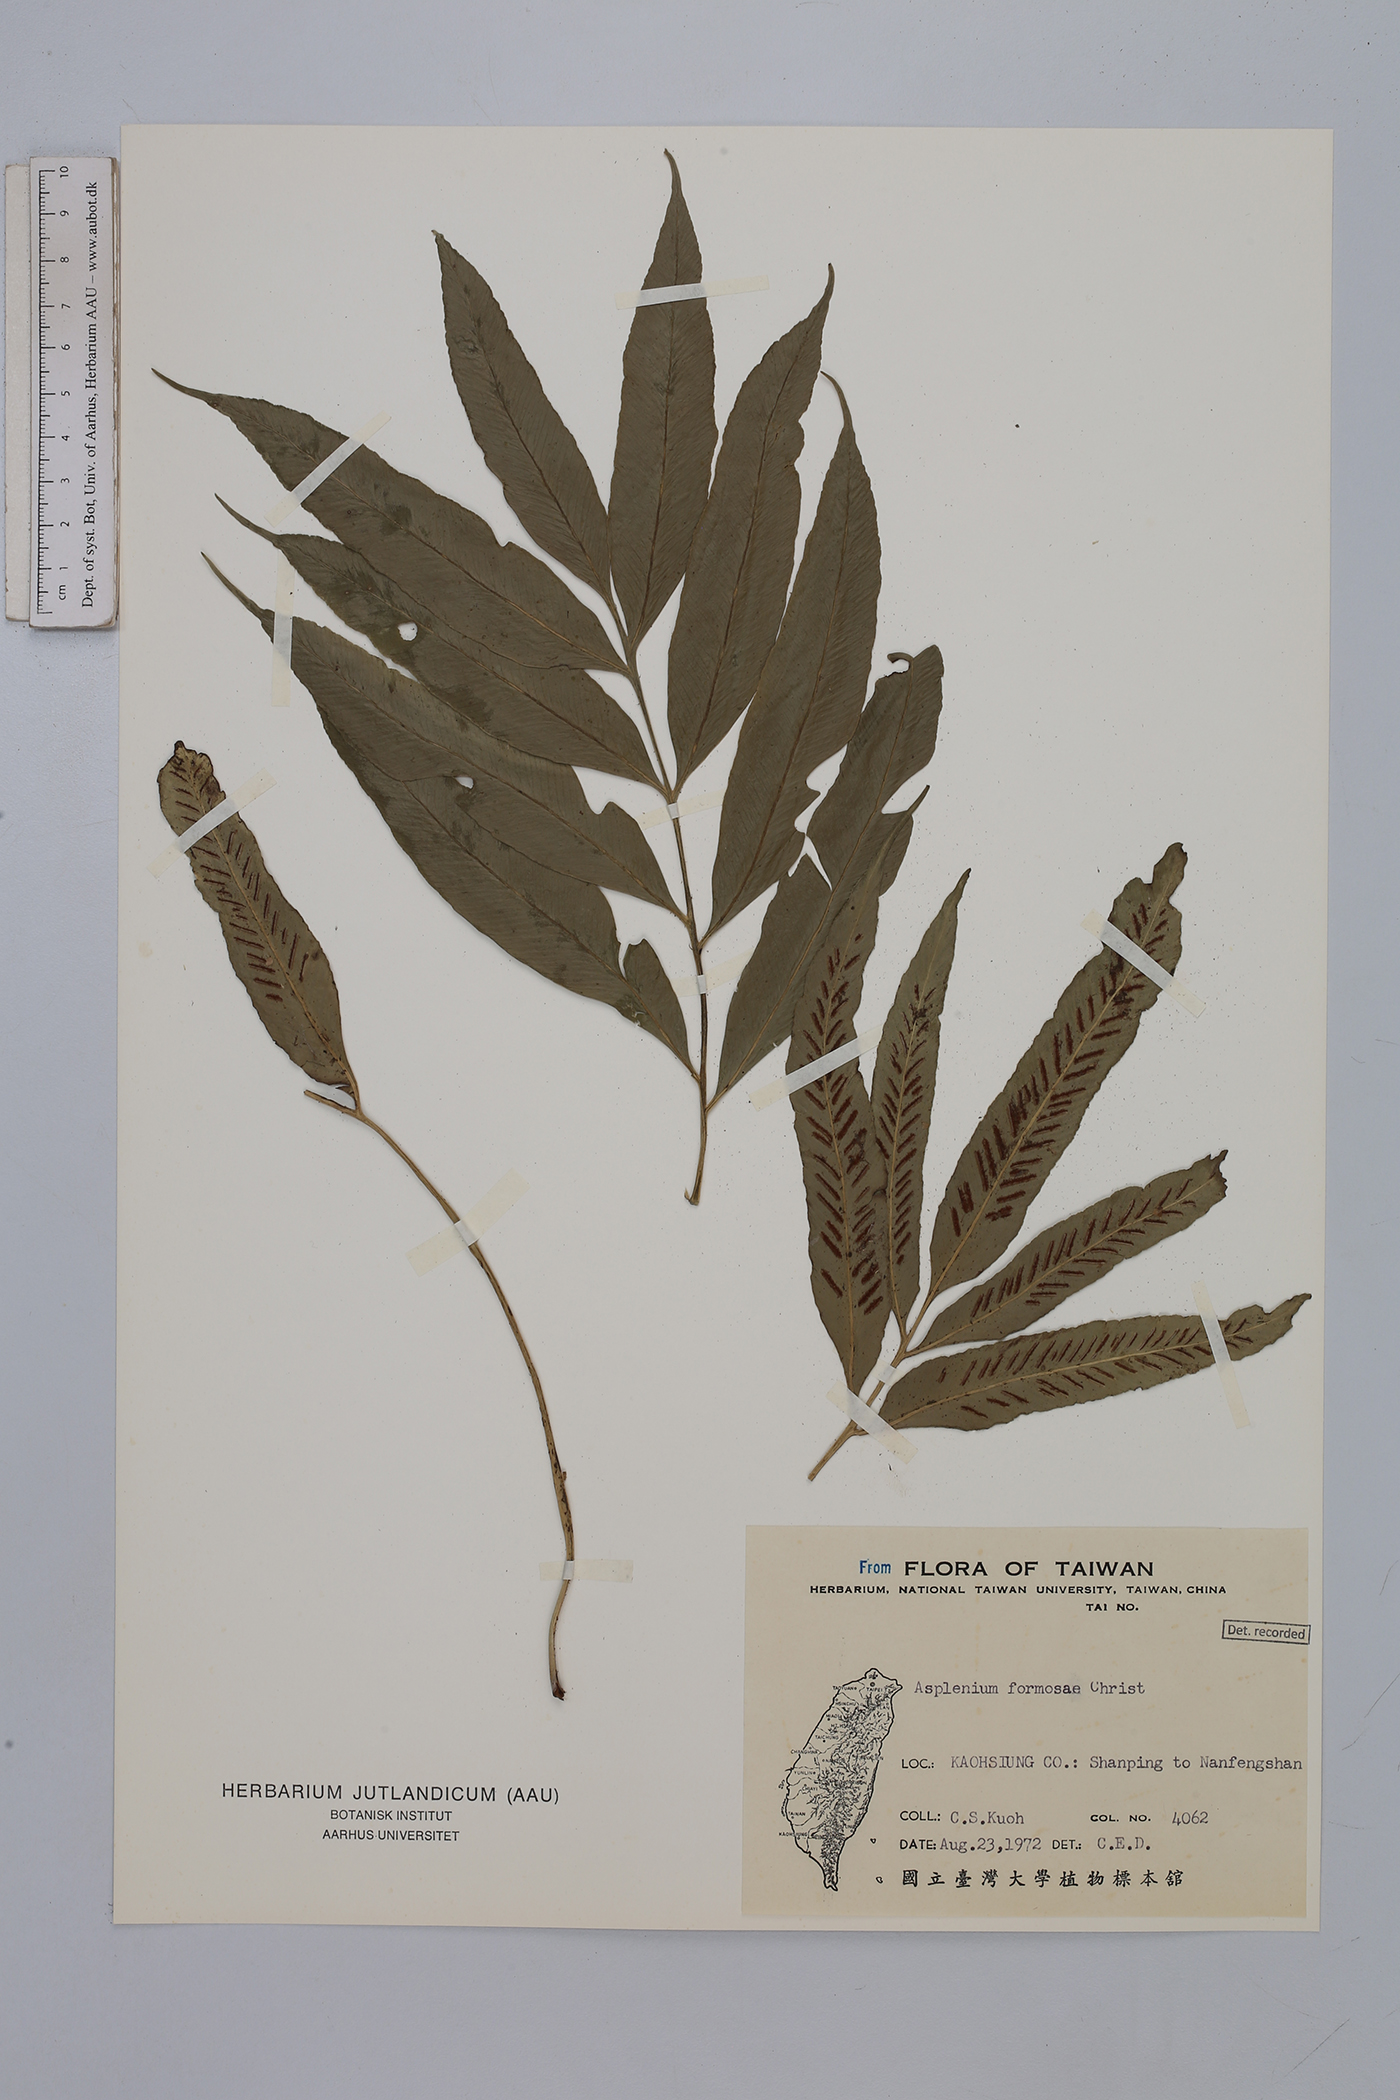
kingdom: Plantae
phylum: Tracheophyta
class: Polypodiopsida
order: Polypodiales
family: Aspleniaceae
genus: Asplenium
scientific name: Asplenium formosae
